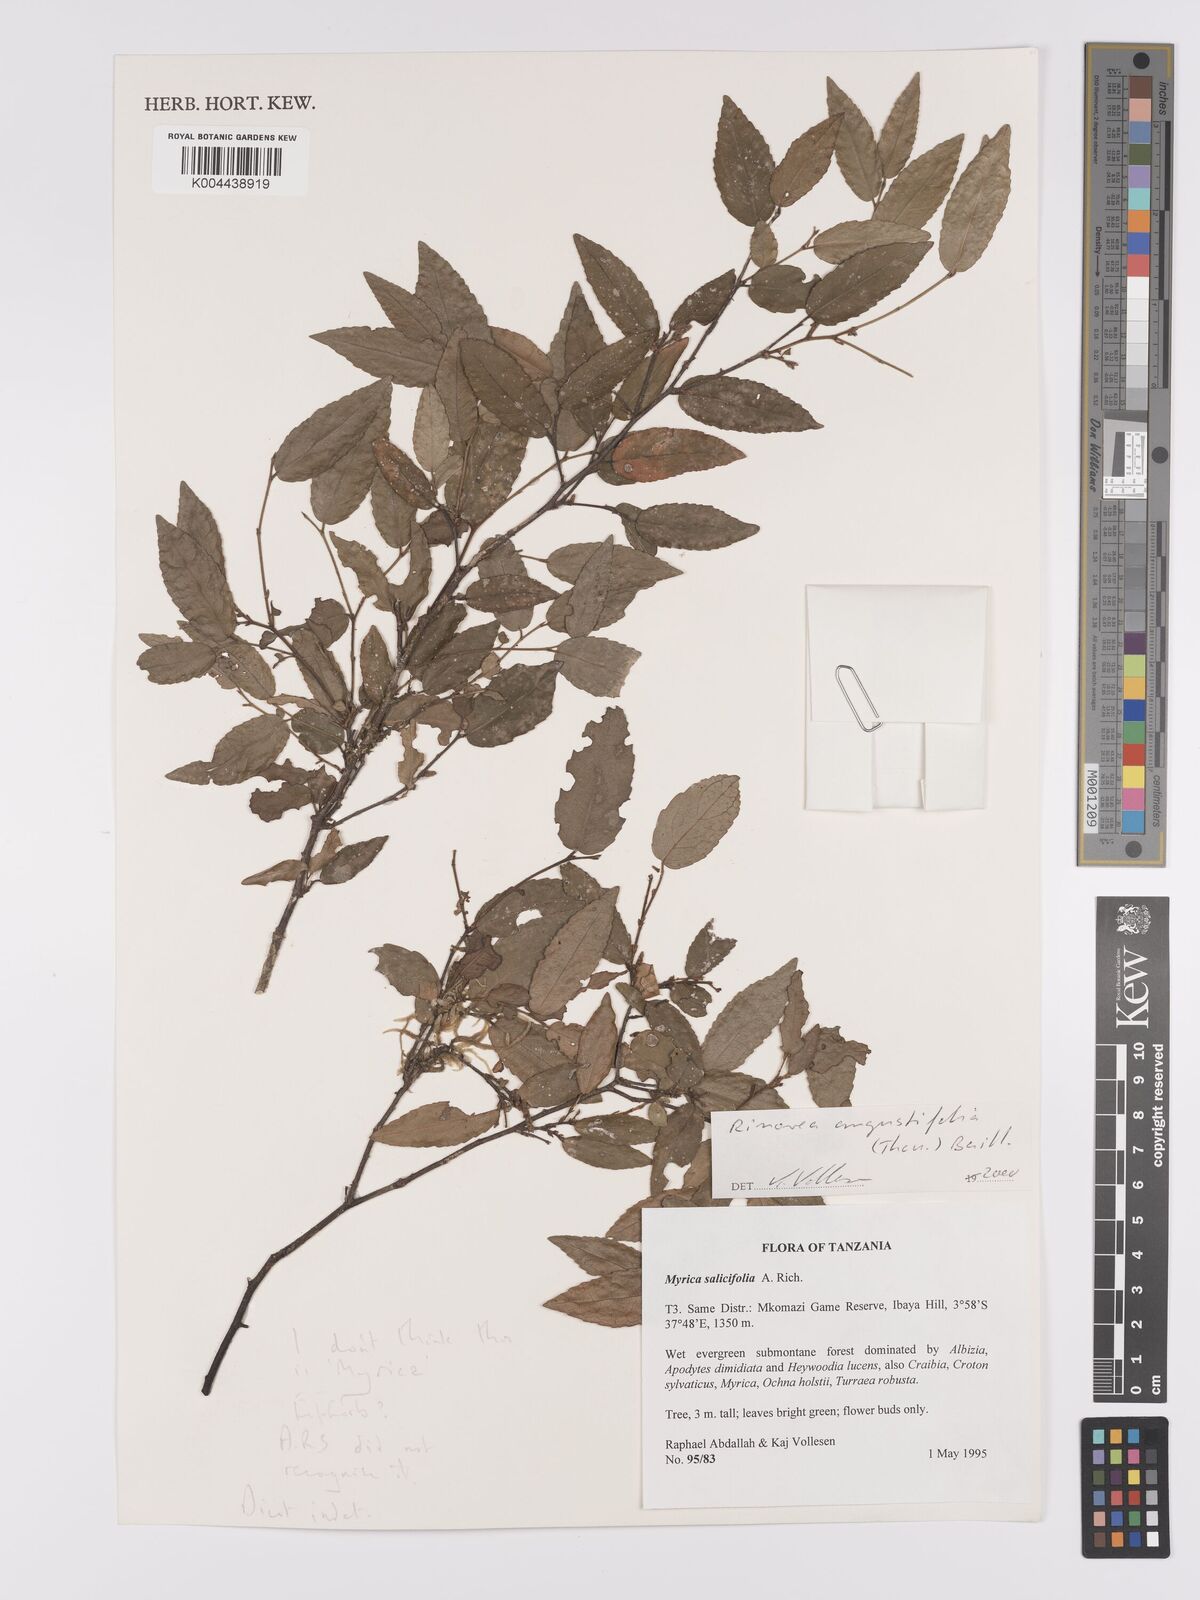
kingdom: Plantae
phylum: Tracheophyta
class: Magnoliopsida
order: Malpighiales
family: Violaceae
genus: Rinorea
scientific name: Rinorea angustifolia
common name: White violet-bush
